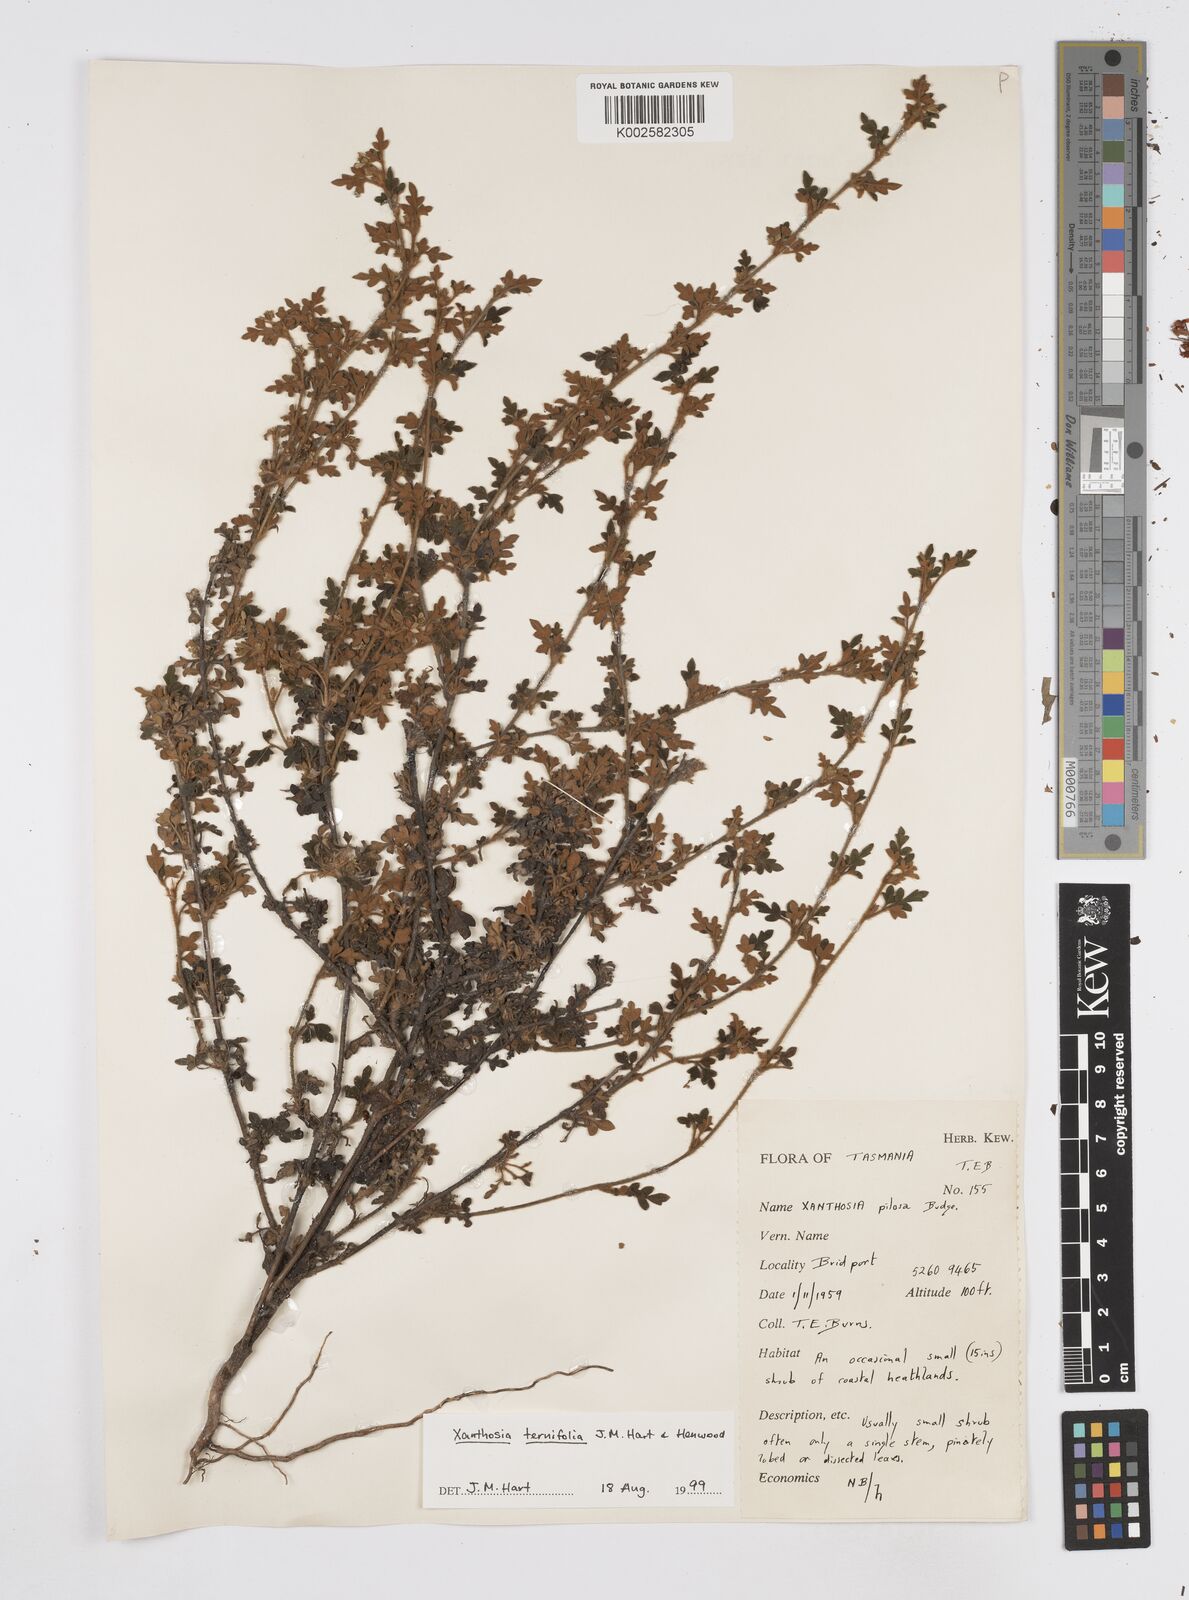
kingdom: Plantae
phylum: Tracheophyta
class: Magnoliopsida
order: Apiales
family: Apiaceae
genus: Xanthosia
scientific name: Xanthosia ternifolia
